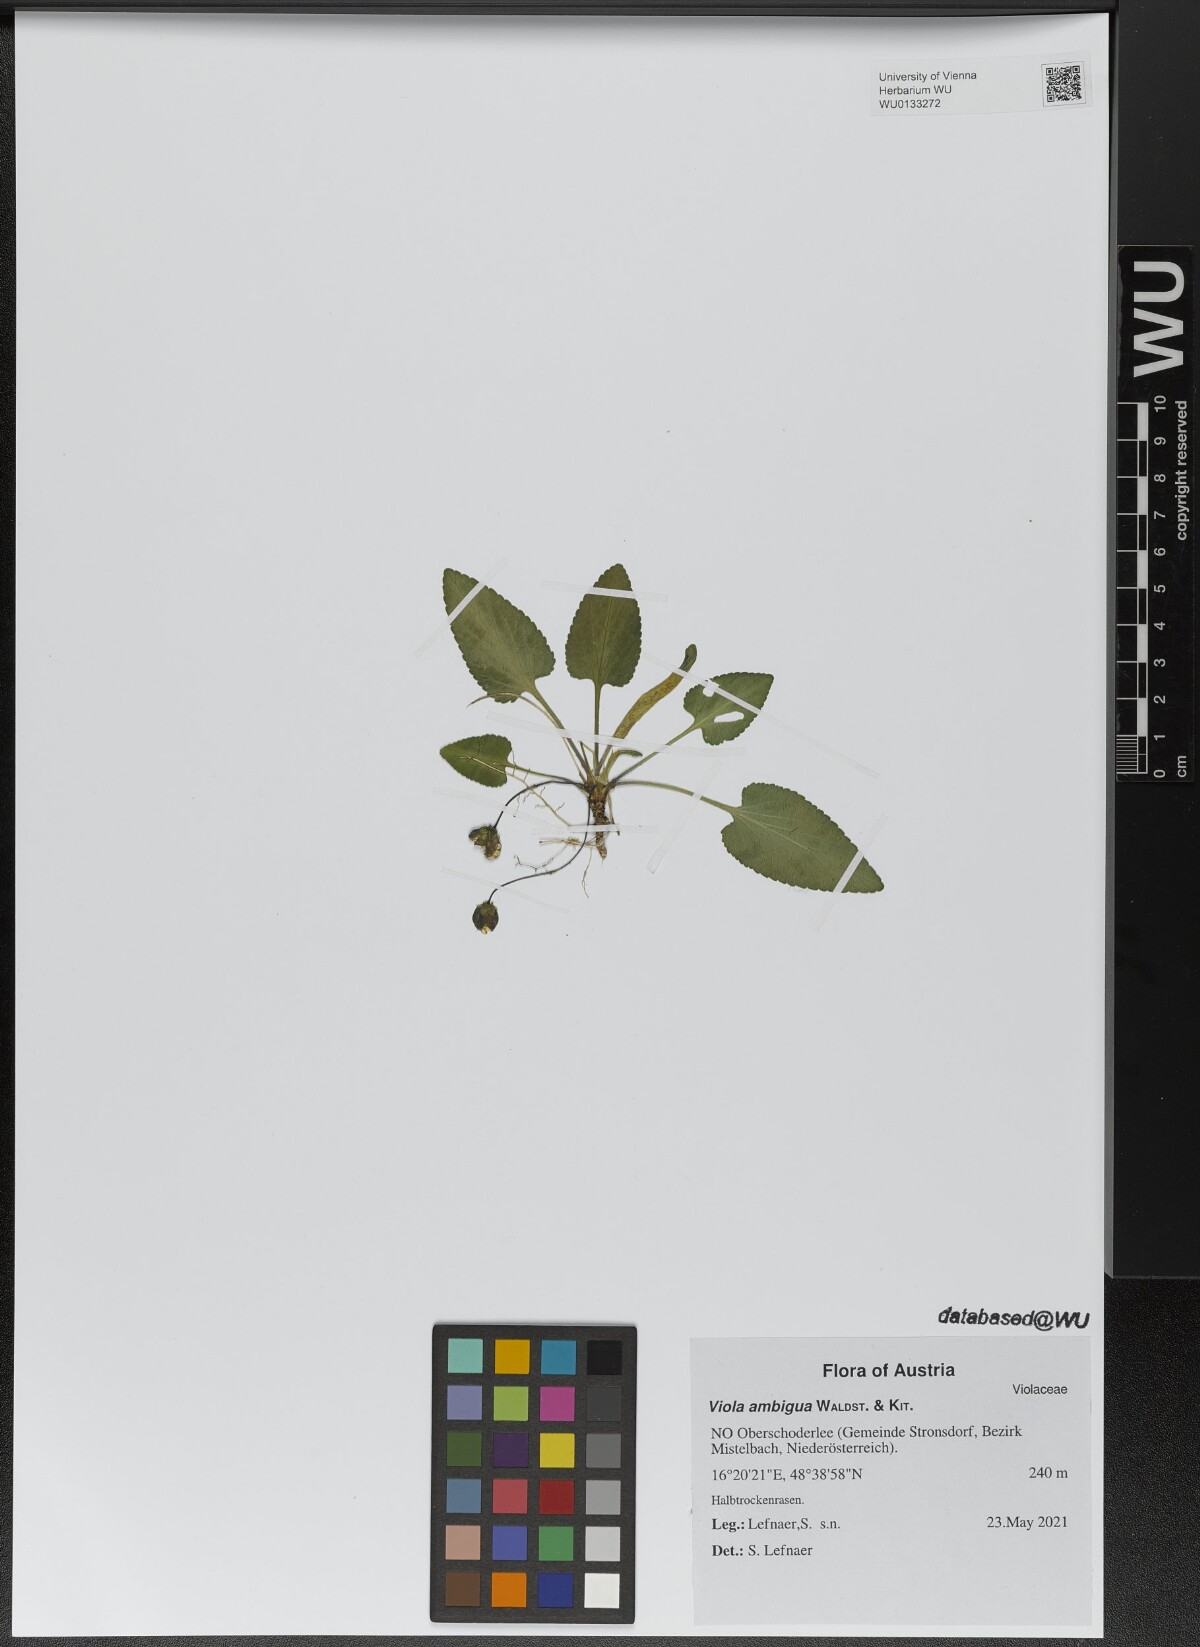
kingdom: Plantae
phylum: Tracheophyta
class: Magnoliopsida
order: Malpighiales
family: Violaceae
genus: Viola
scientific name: Viola ambigua
